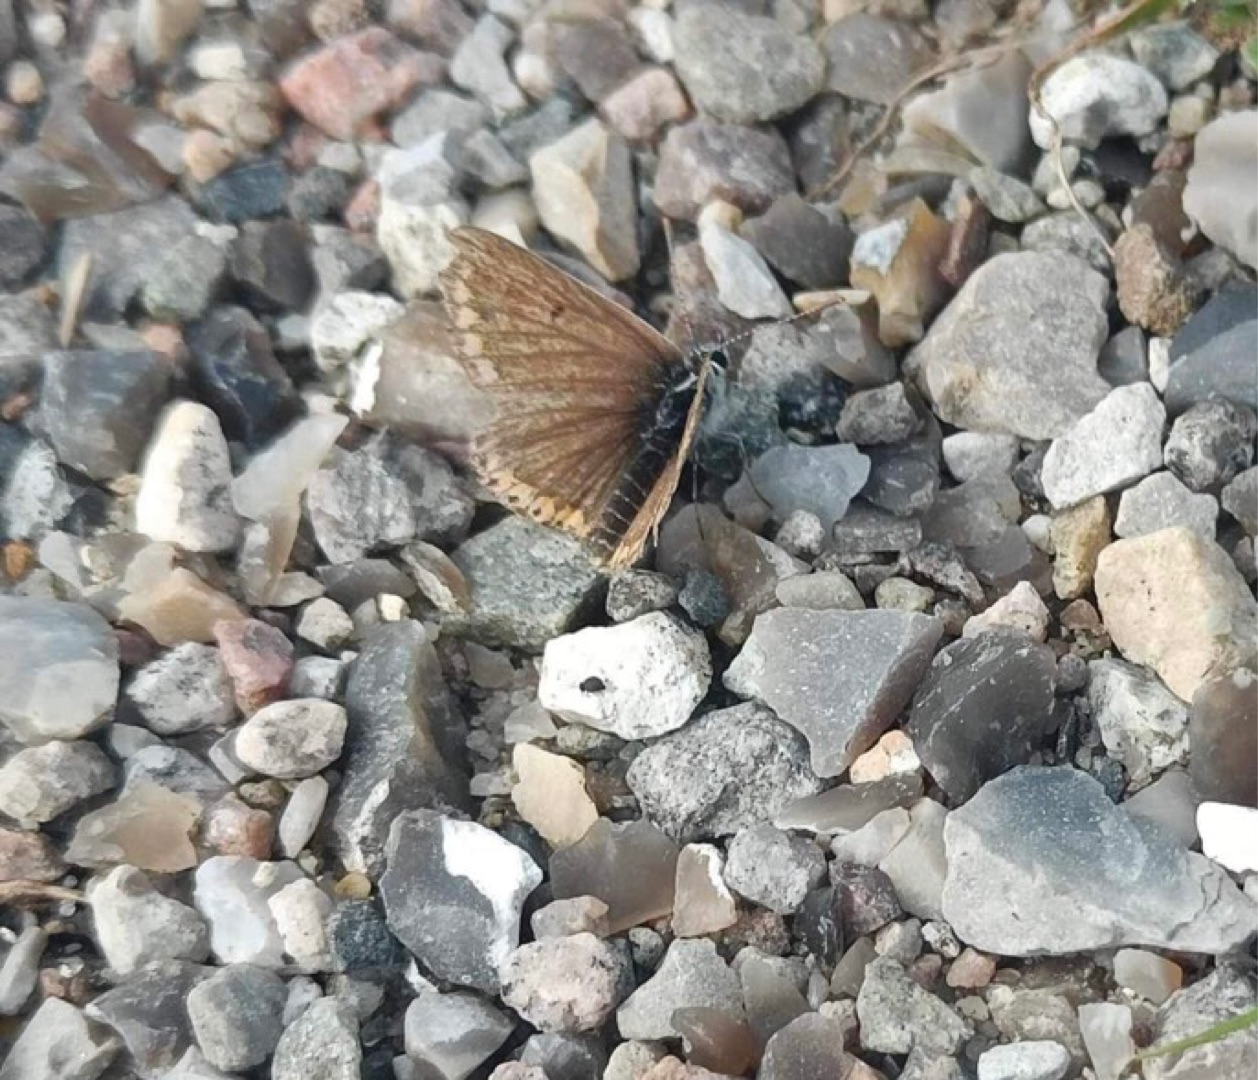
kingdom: Animalia
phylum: Arthropoda
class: Insecta
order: Lepidoptera
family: Lycaenidae
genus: Aricia
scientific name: Aricia agestis
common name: Rødplettet blåfugl
